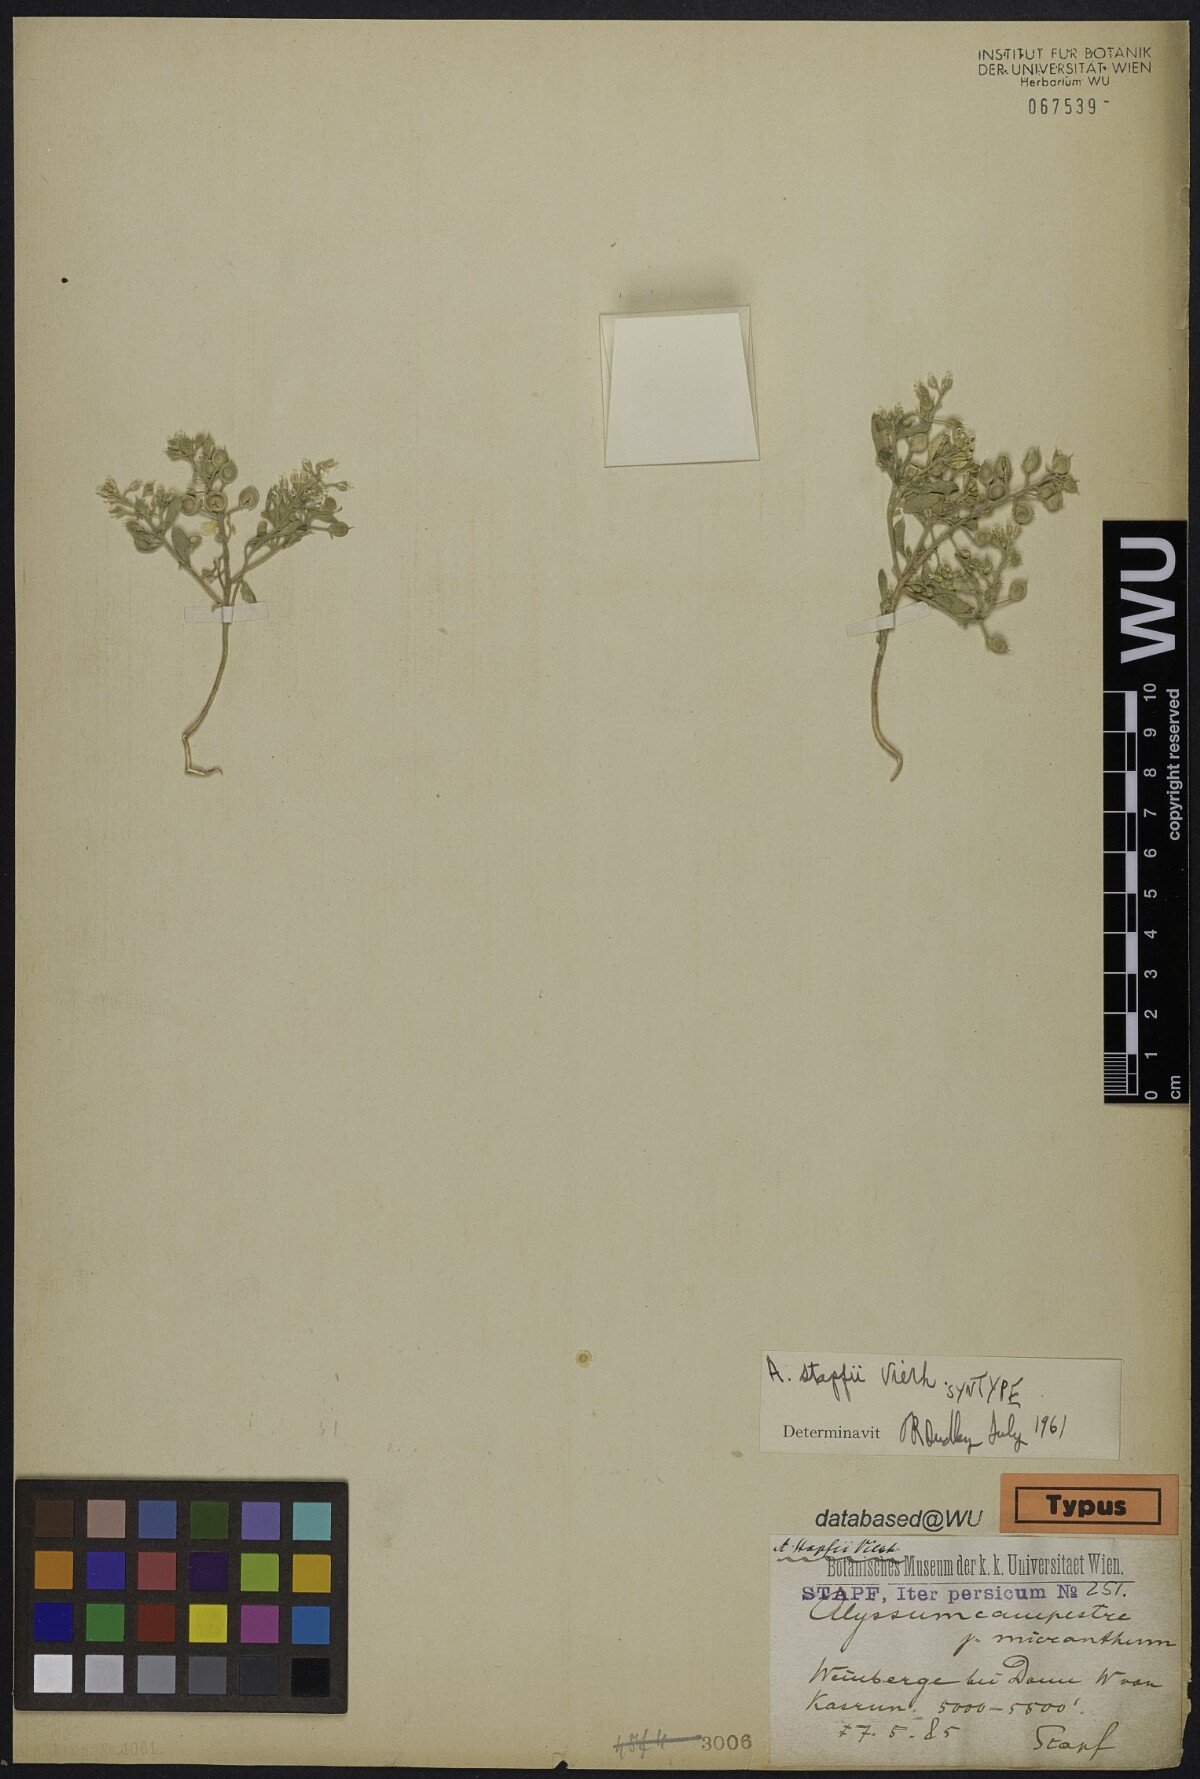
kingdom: Plantae
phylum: Tracheophyta
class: Magnoliopsida
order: Brassicales
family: Brassicaceae
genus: Alyssum
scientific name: Alyssum stapfii
